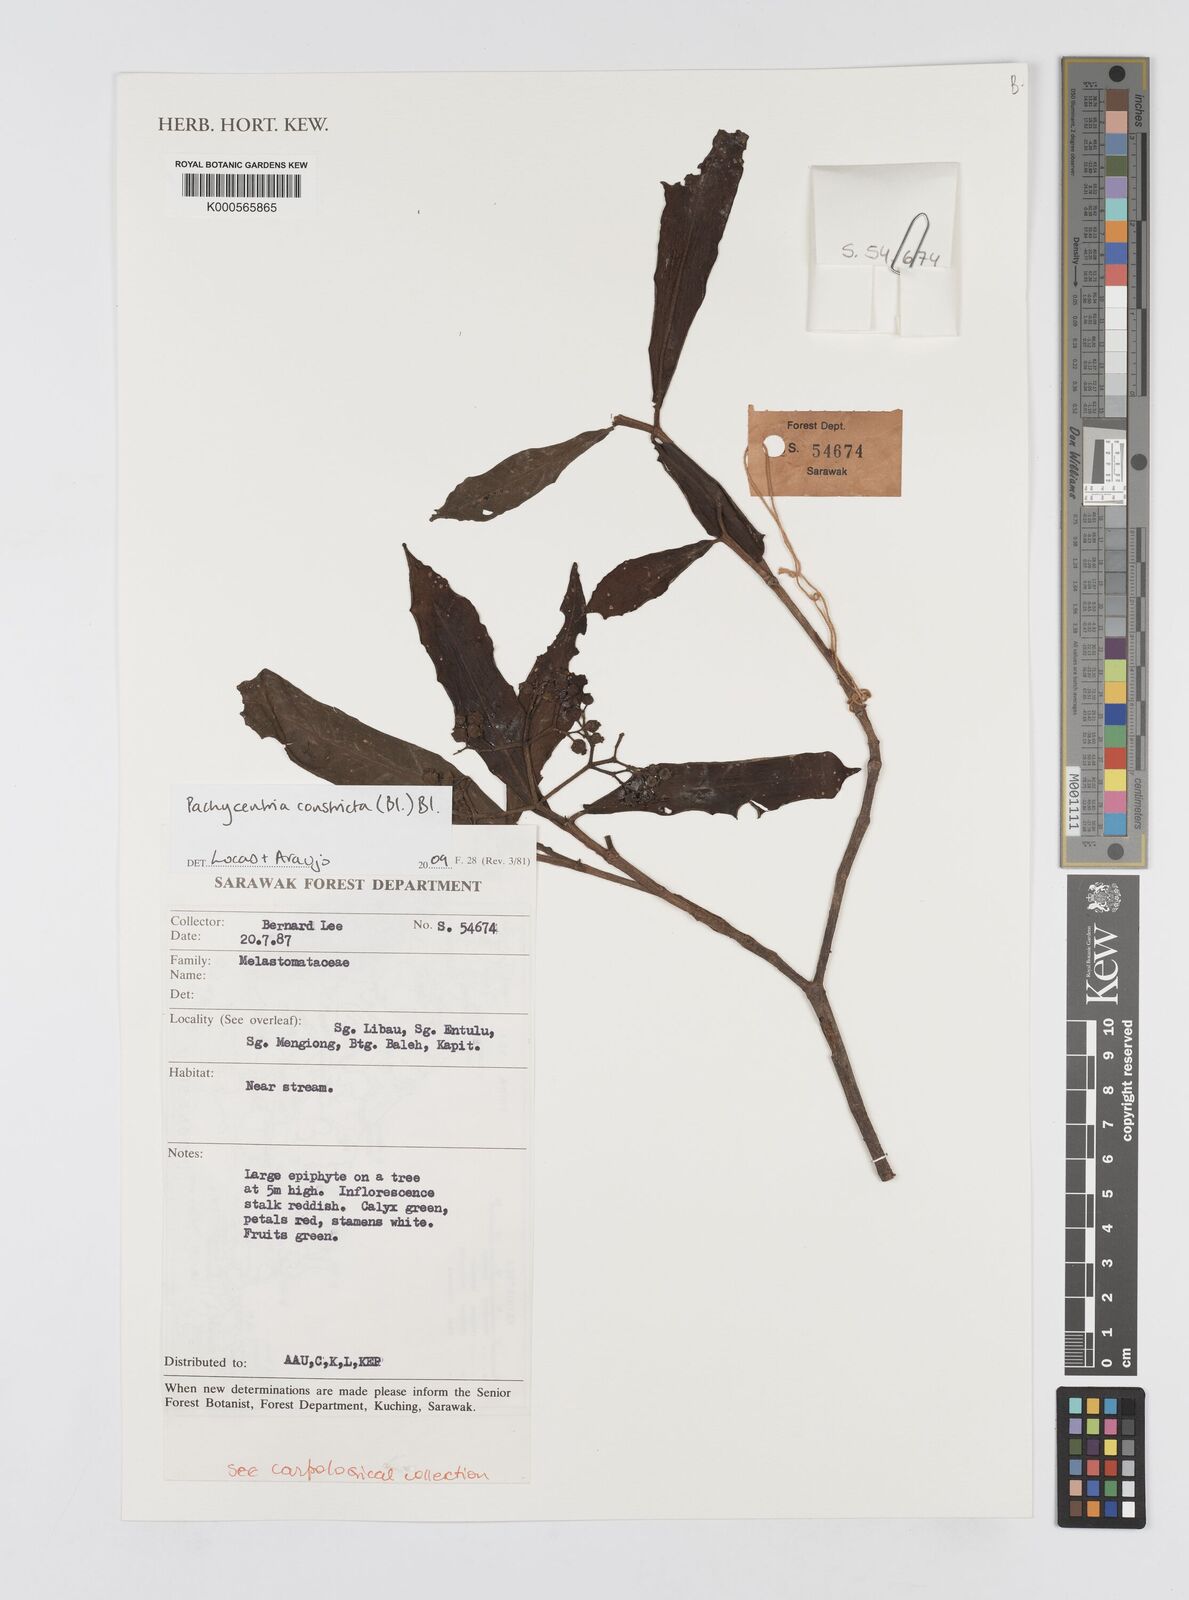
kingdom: Plantae
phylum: Tracheophyta
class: Magnoliopsida
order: Myrtales
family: Melastomataceae
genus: Pachycentria
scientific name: Pachycentria constricta
